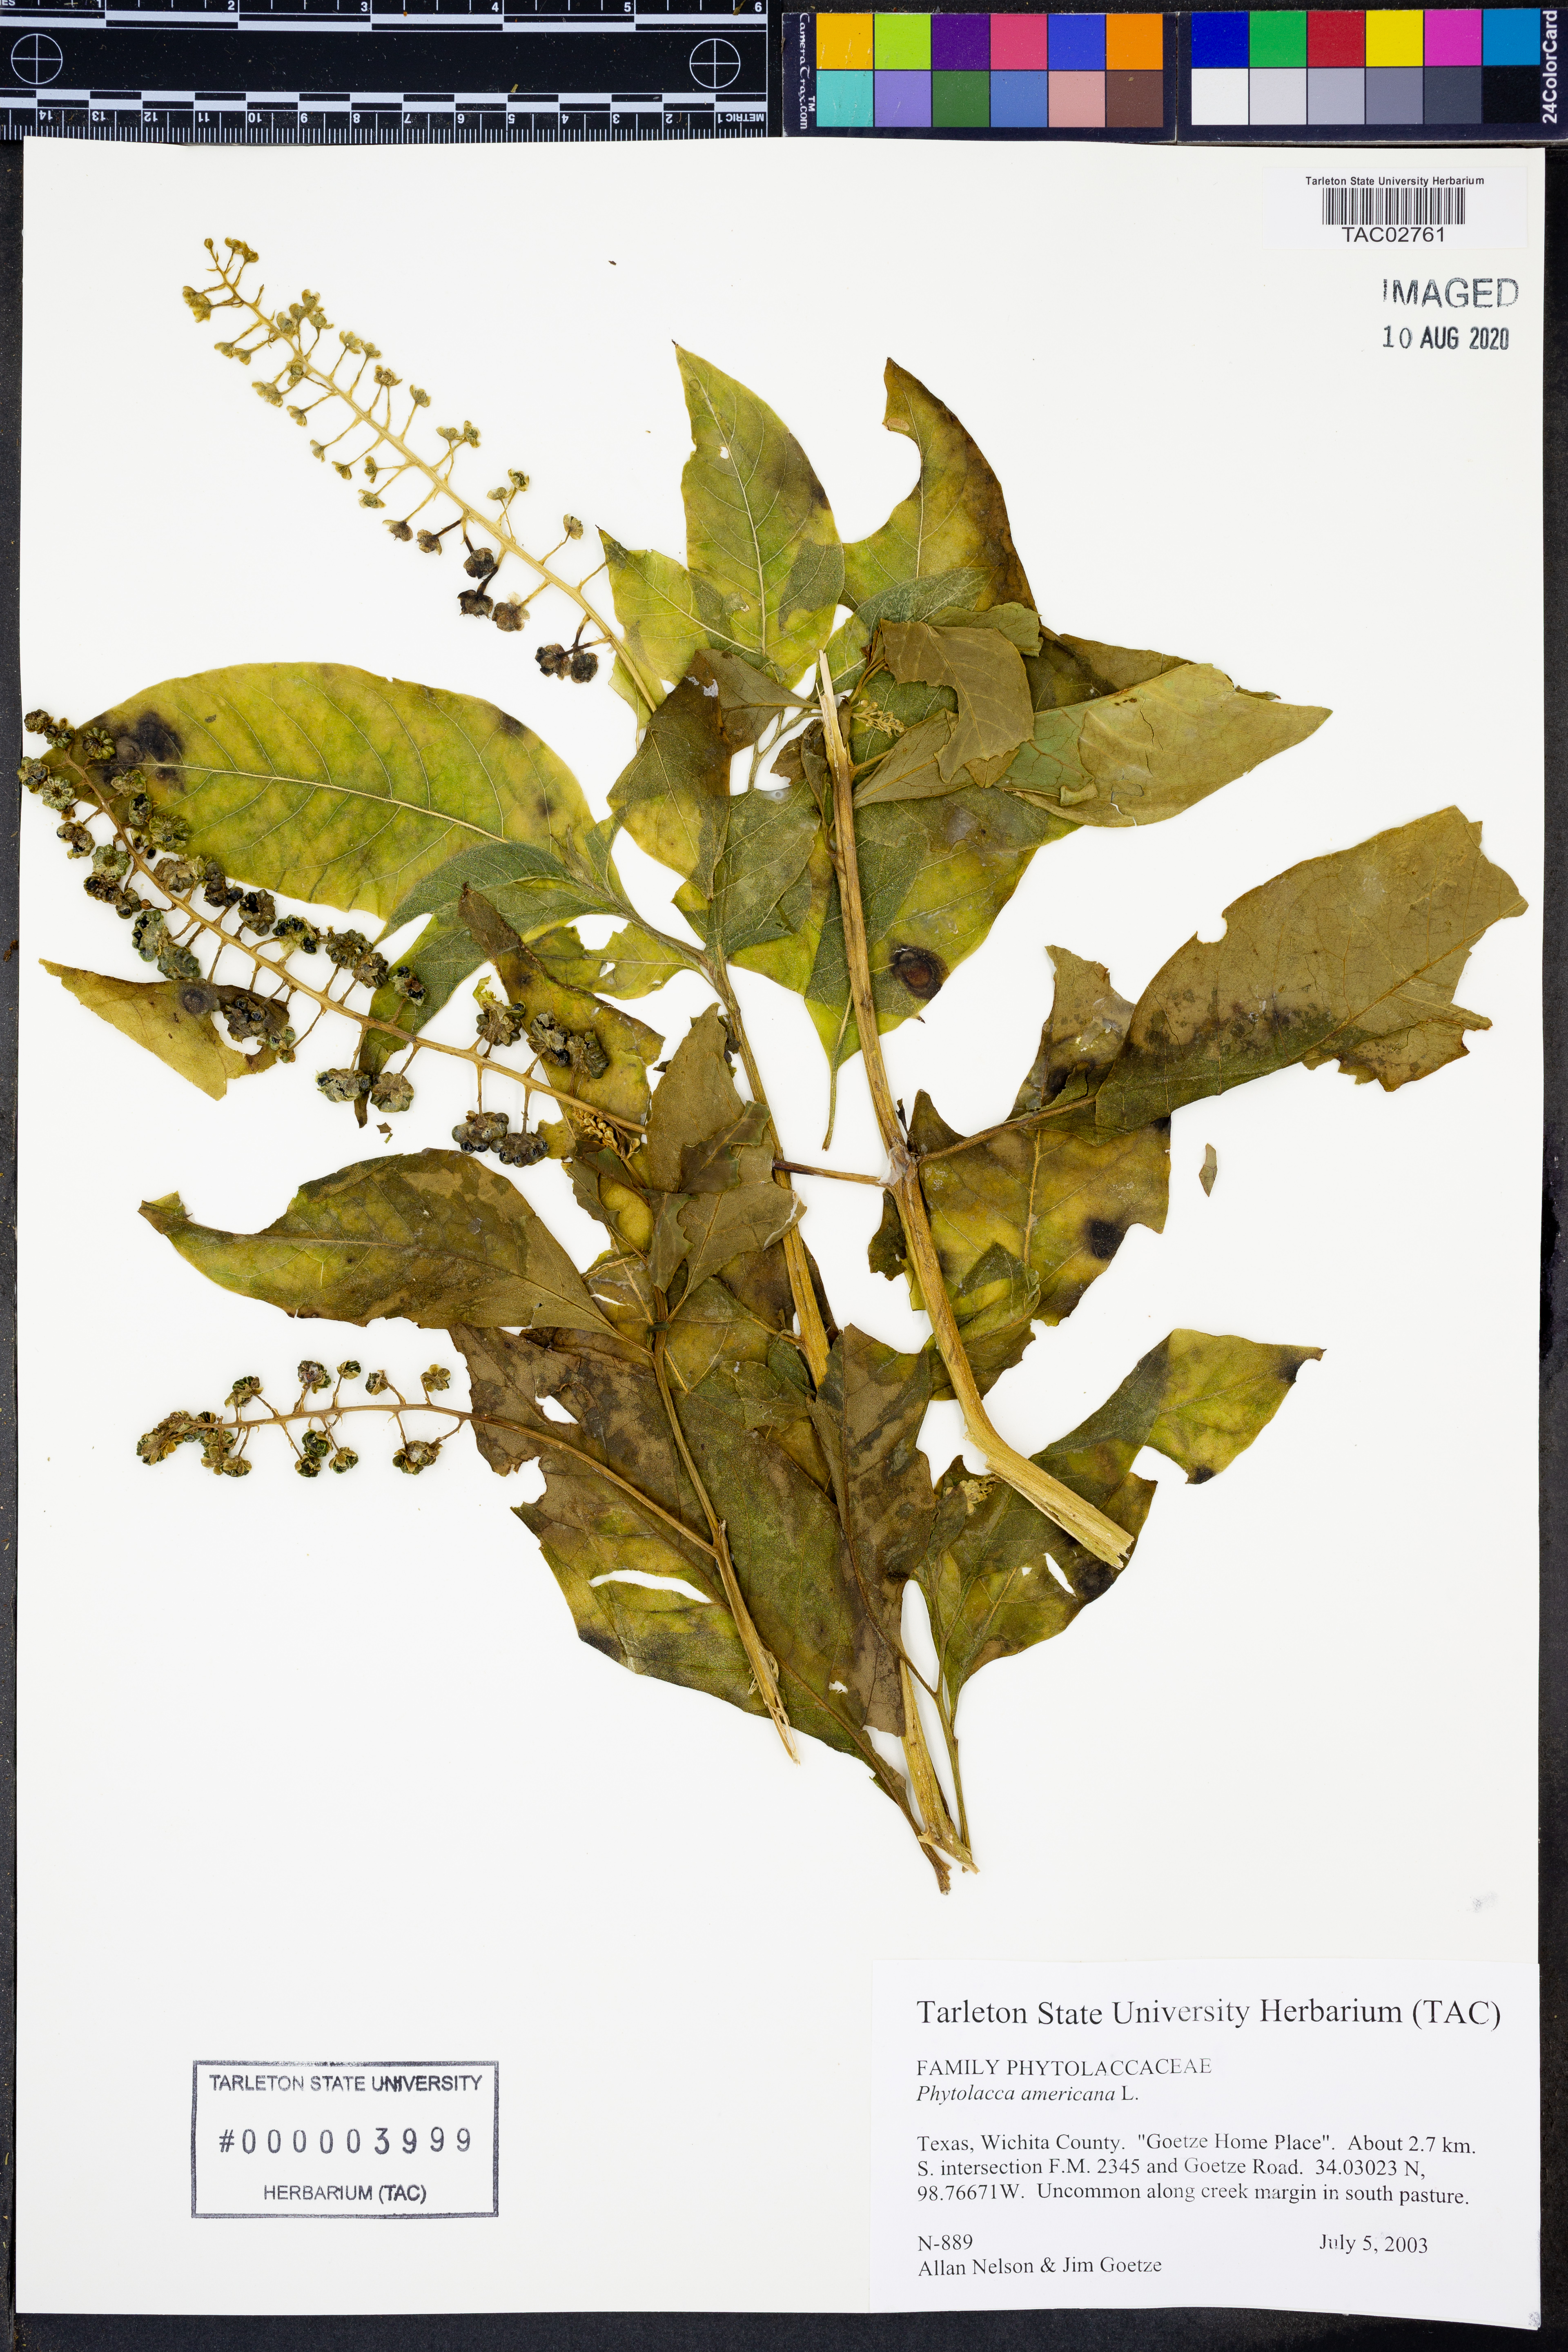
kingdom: Plantae
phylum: Tracheophyta
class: Magnoliopsida
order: Caryophyllales
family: Phytolaccaceae
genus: Phytolacca
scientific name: Phytolacca americana
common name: American pokeweed
